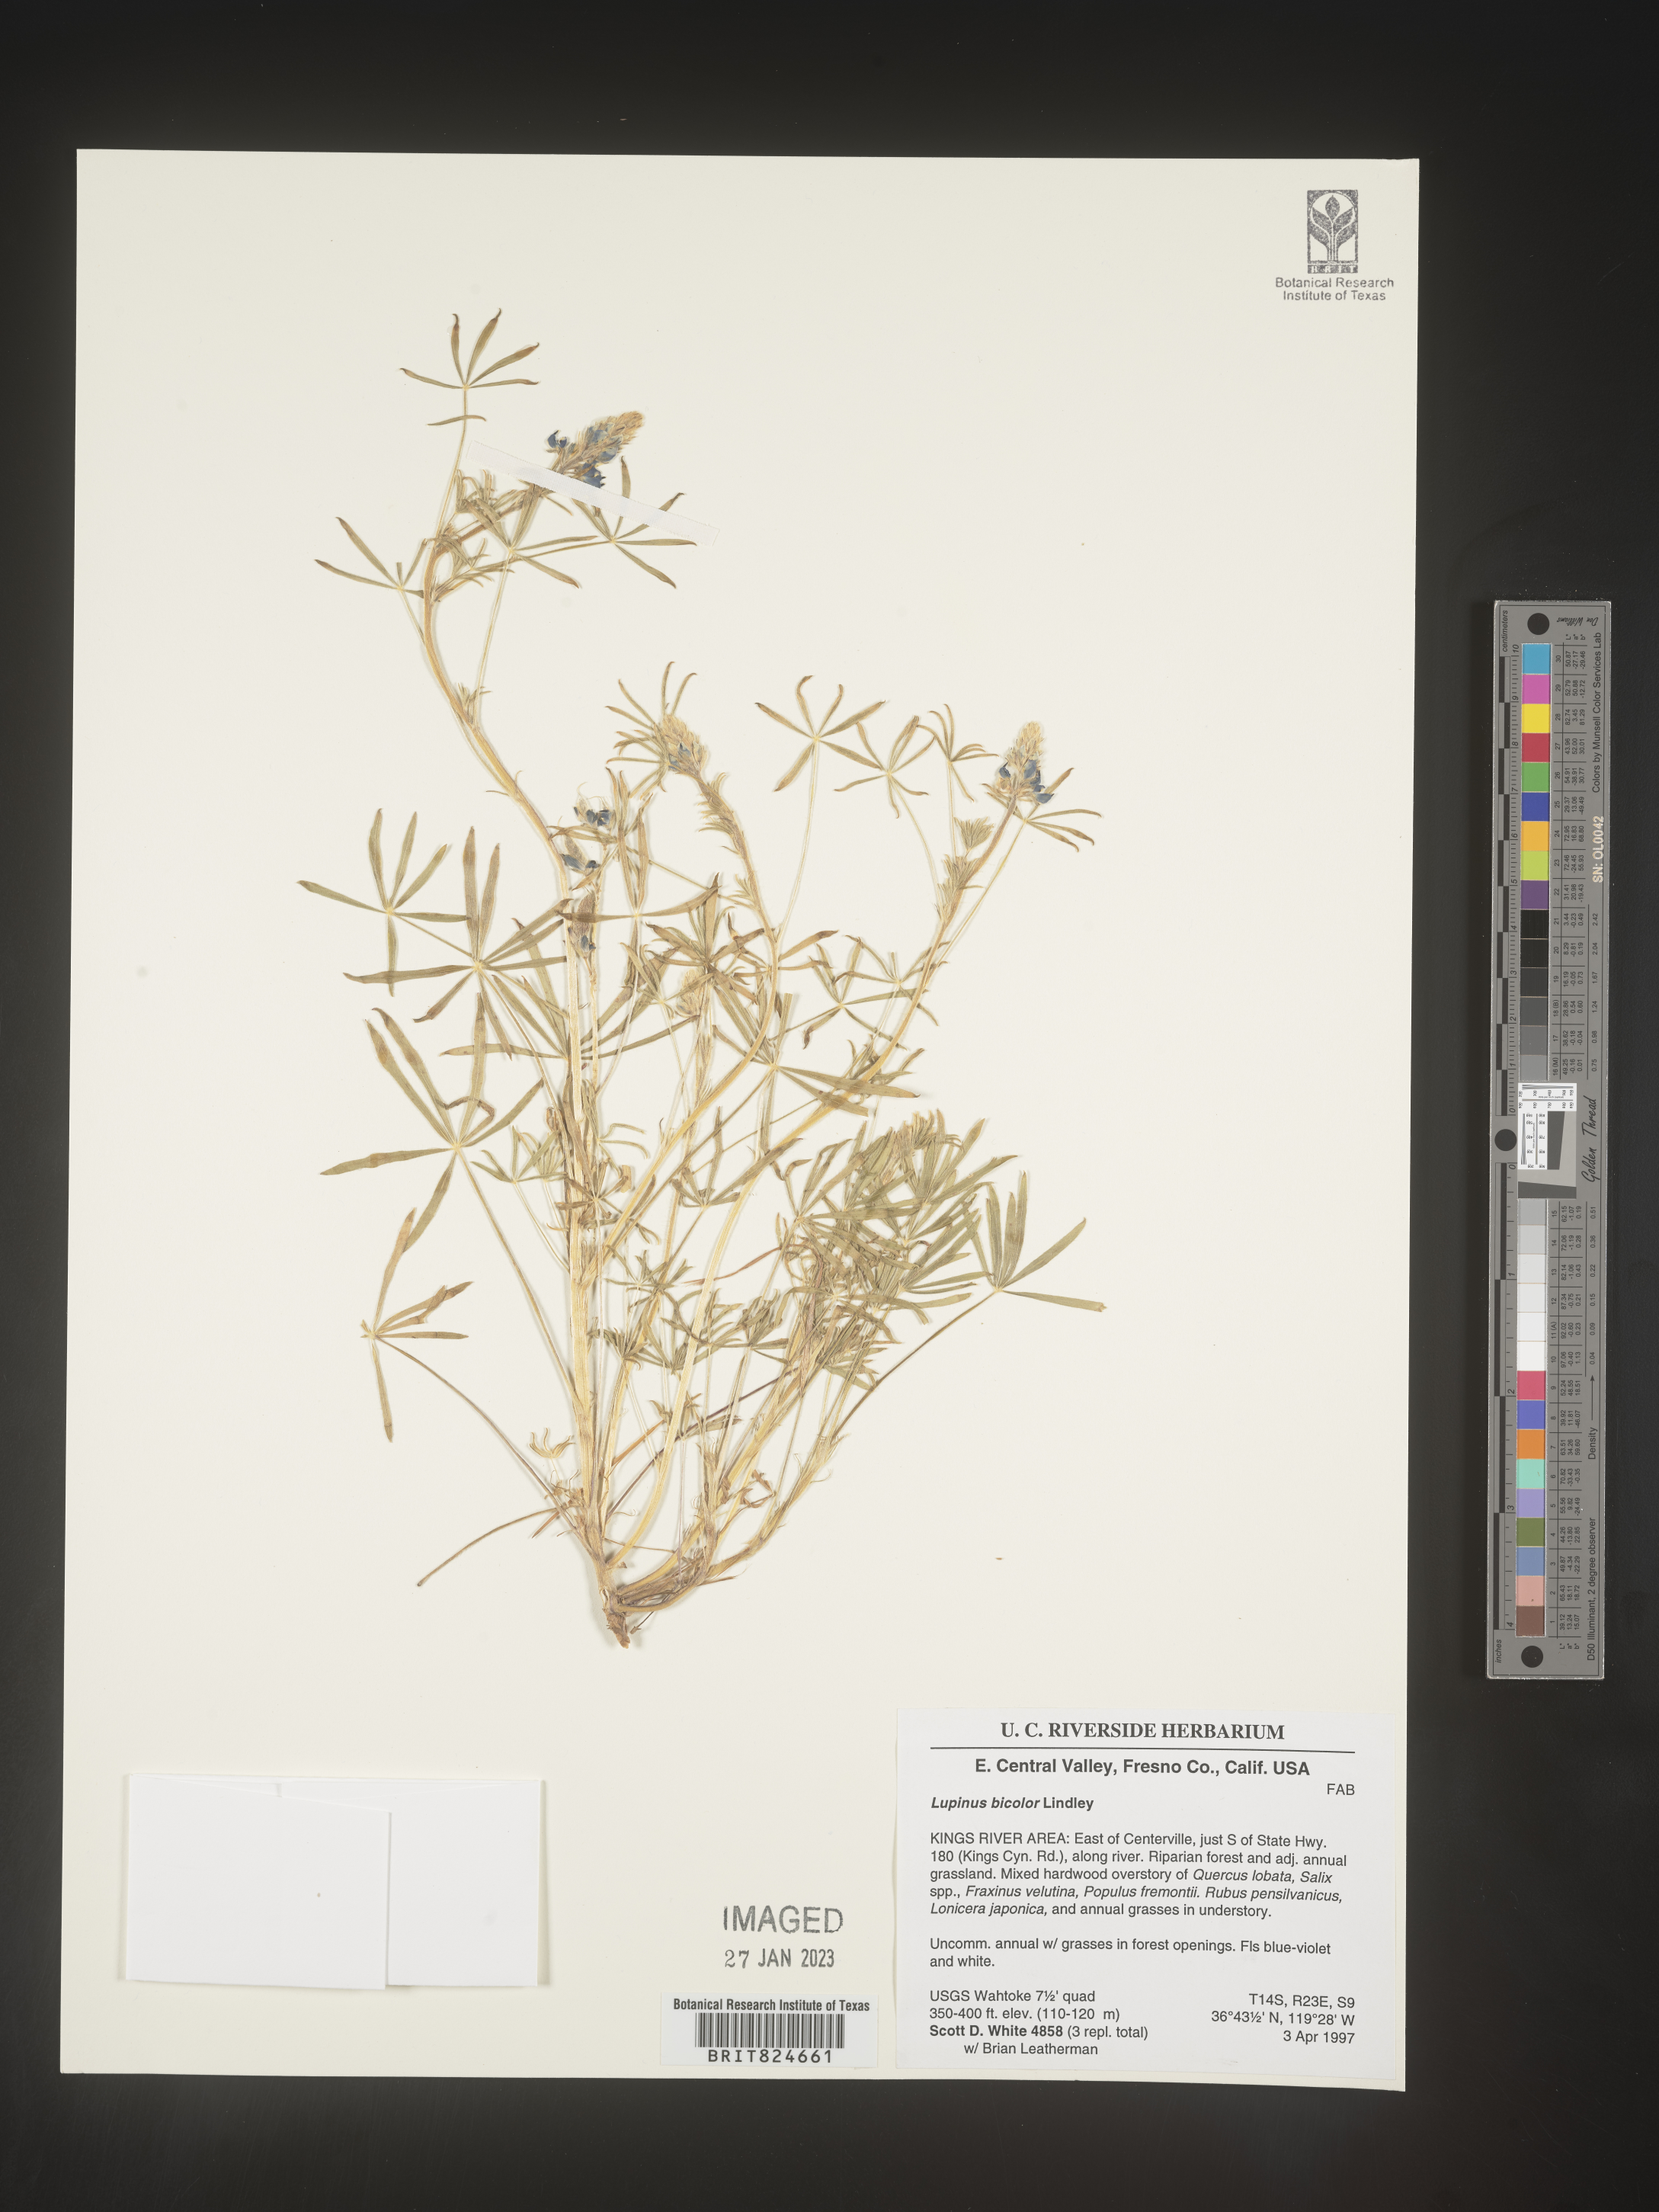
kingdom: Plantae
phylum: Tracheophyta
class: Magnoliopsida
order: Fabales
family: Fabaceae
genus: Lupinus
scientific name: Lupinus bicolor
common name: Miniature lupine
